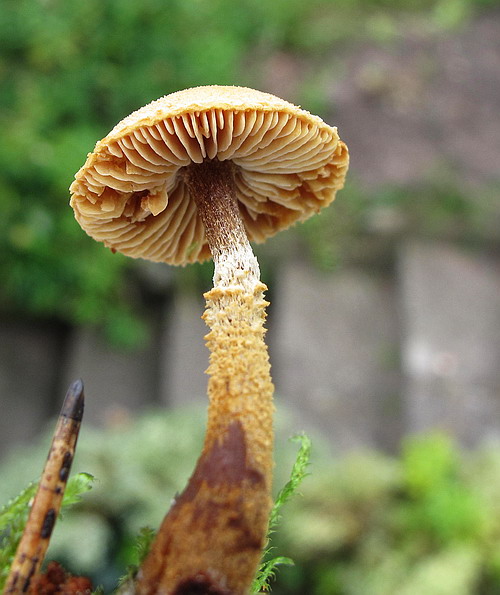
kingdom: Fungi
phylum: Basidiomycota
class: Agaricomycetes
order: Agaricales
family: Tricholomataceae
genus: Cystoderma
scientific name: Cystoderma jasonis
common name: gulkødet grynhat
